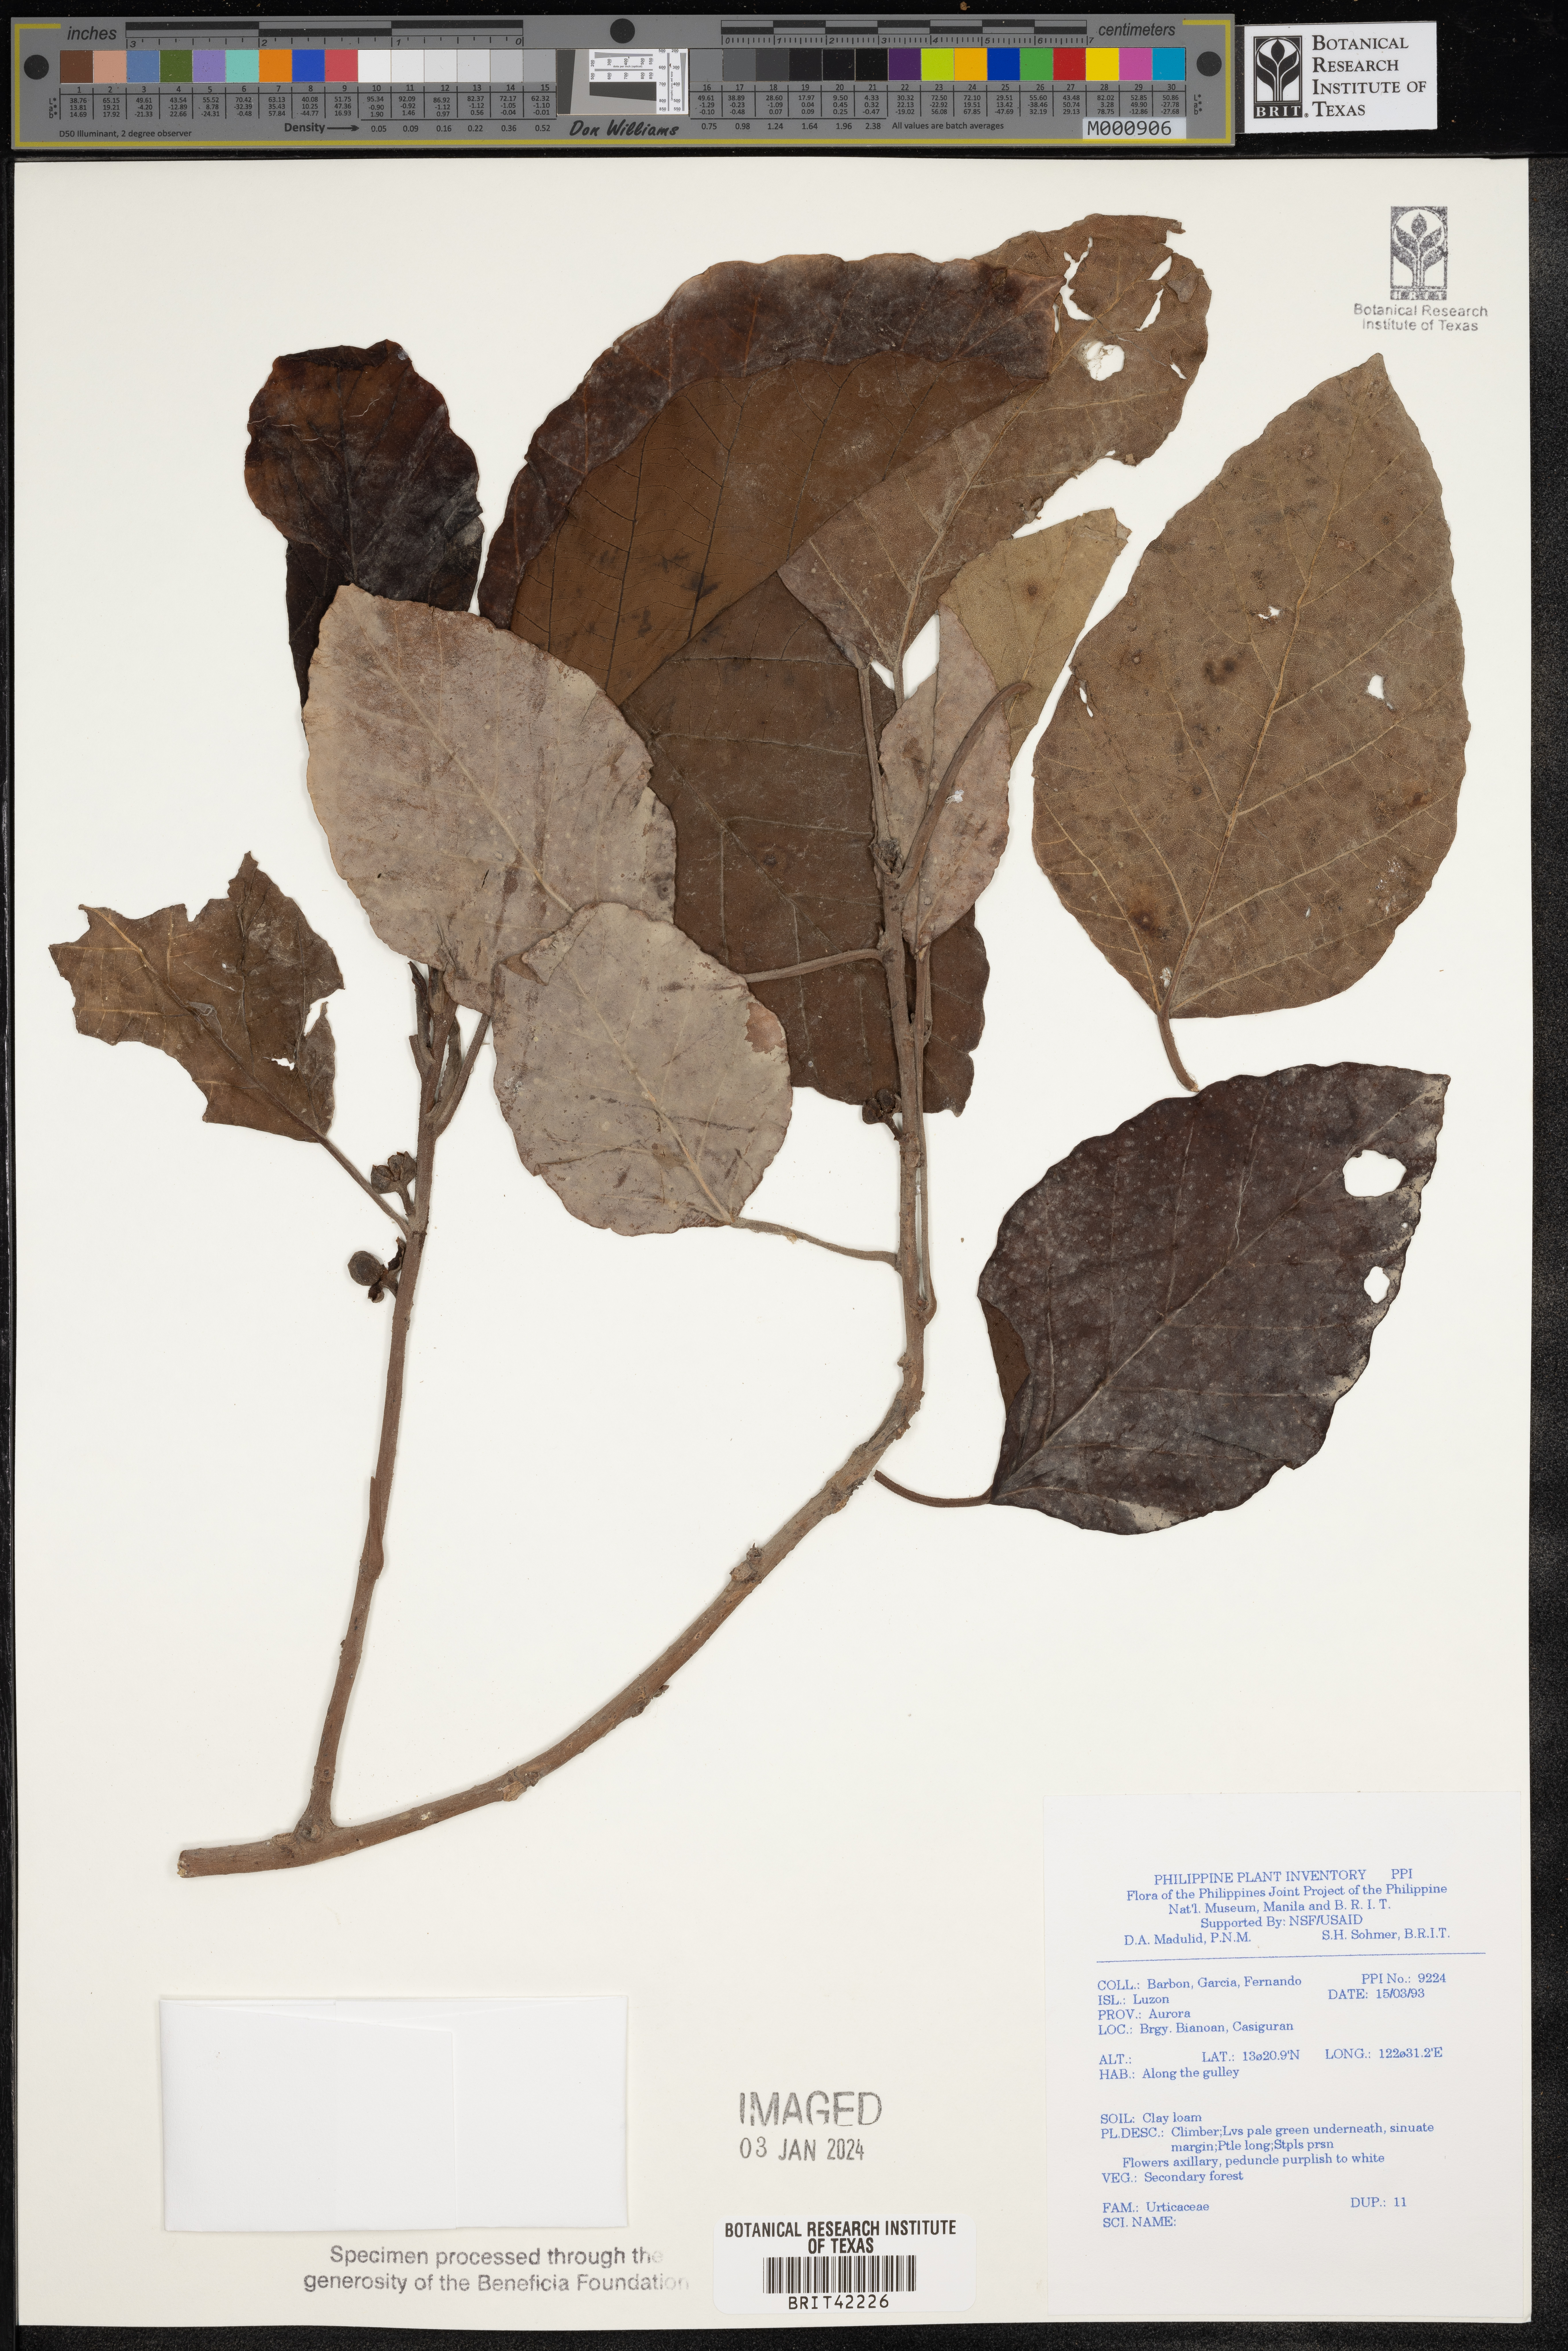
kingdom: Plantae
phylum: Tracheophyta
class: Magnoliopsida
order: Rosales
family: Urticaceae
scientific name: Urticaceae
